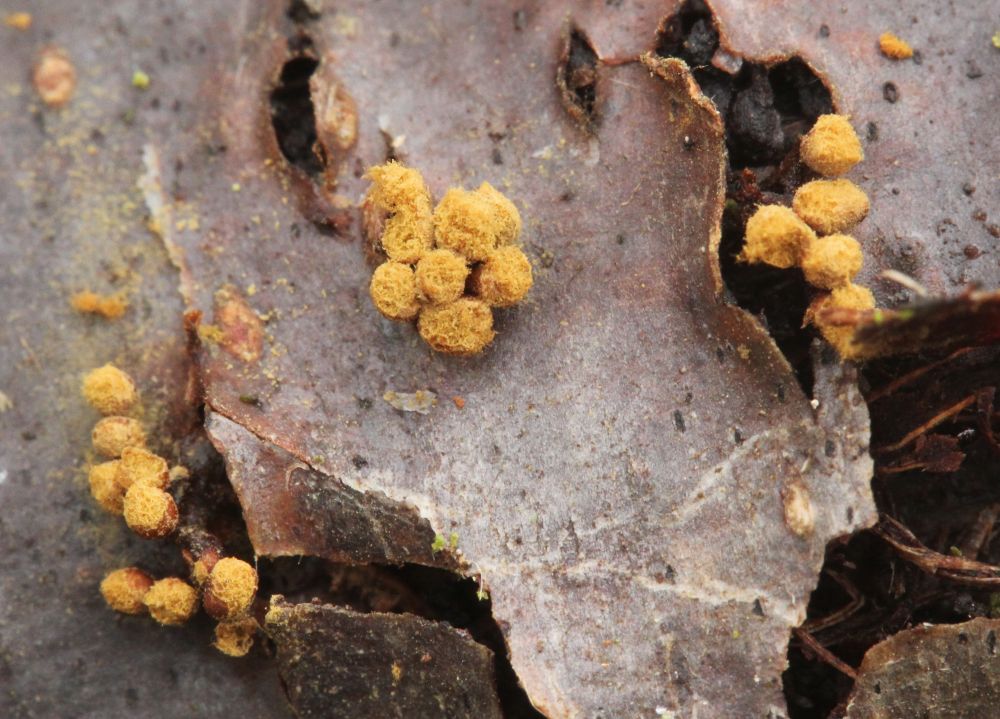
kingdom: Protozoa
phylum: Mycetozoa
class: Myxomycetes
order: Trichiales
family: Trichiaceae
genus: Trichia
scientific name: Trichia botrytis
